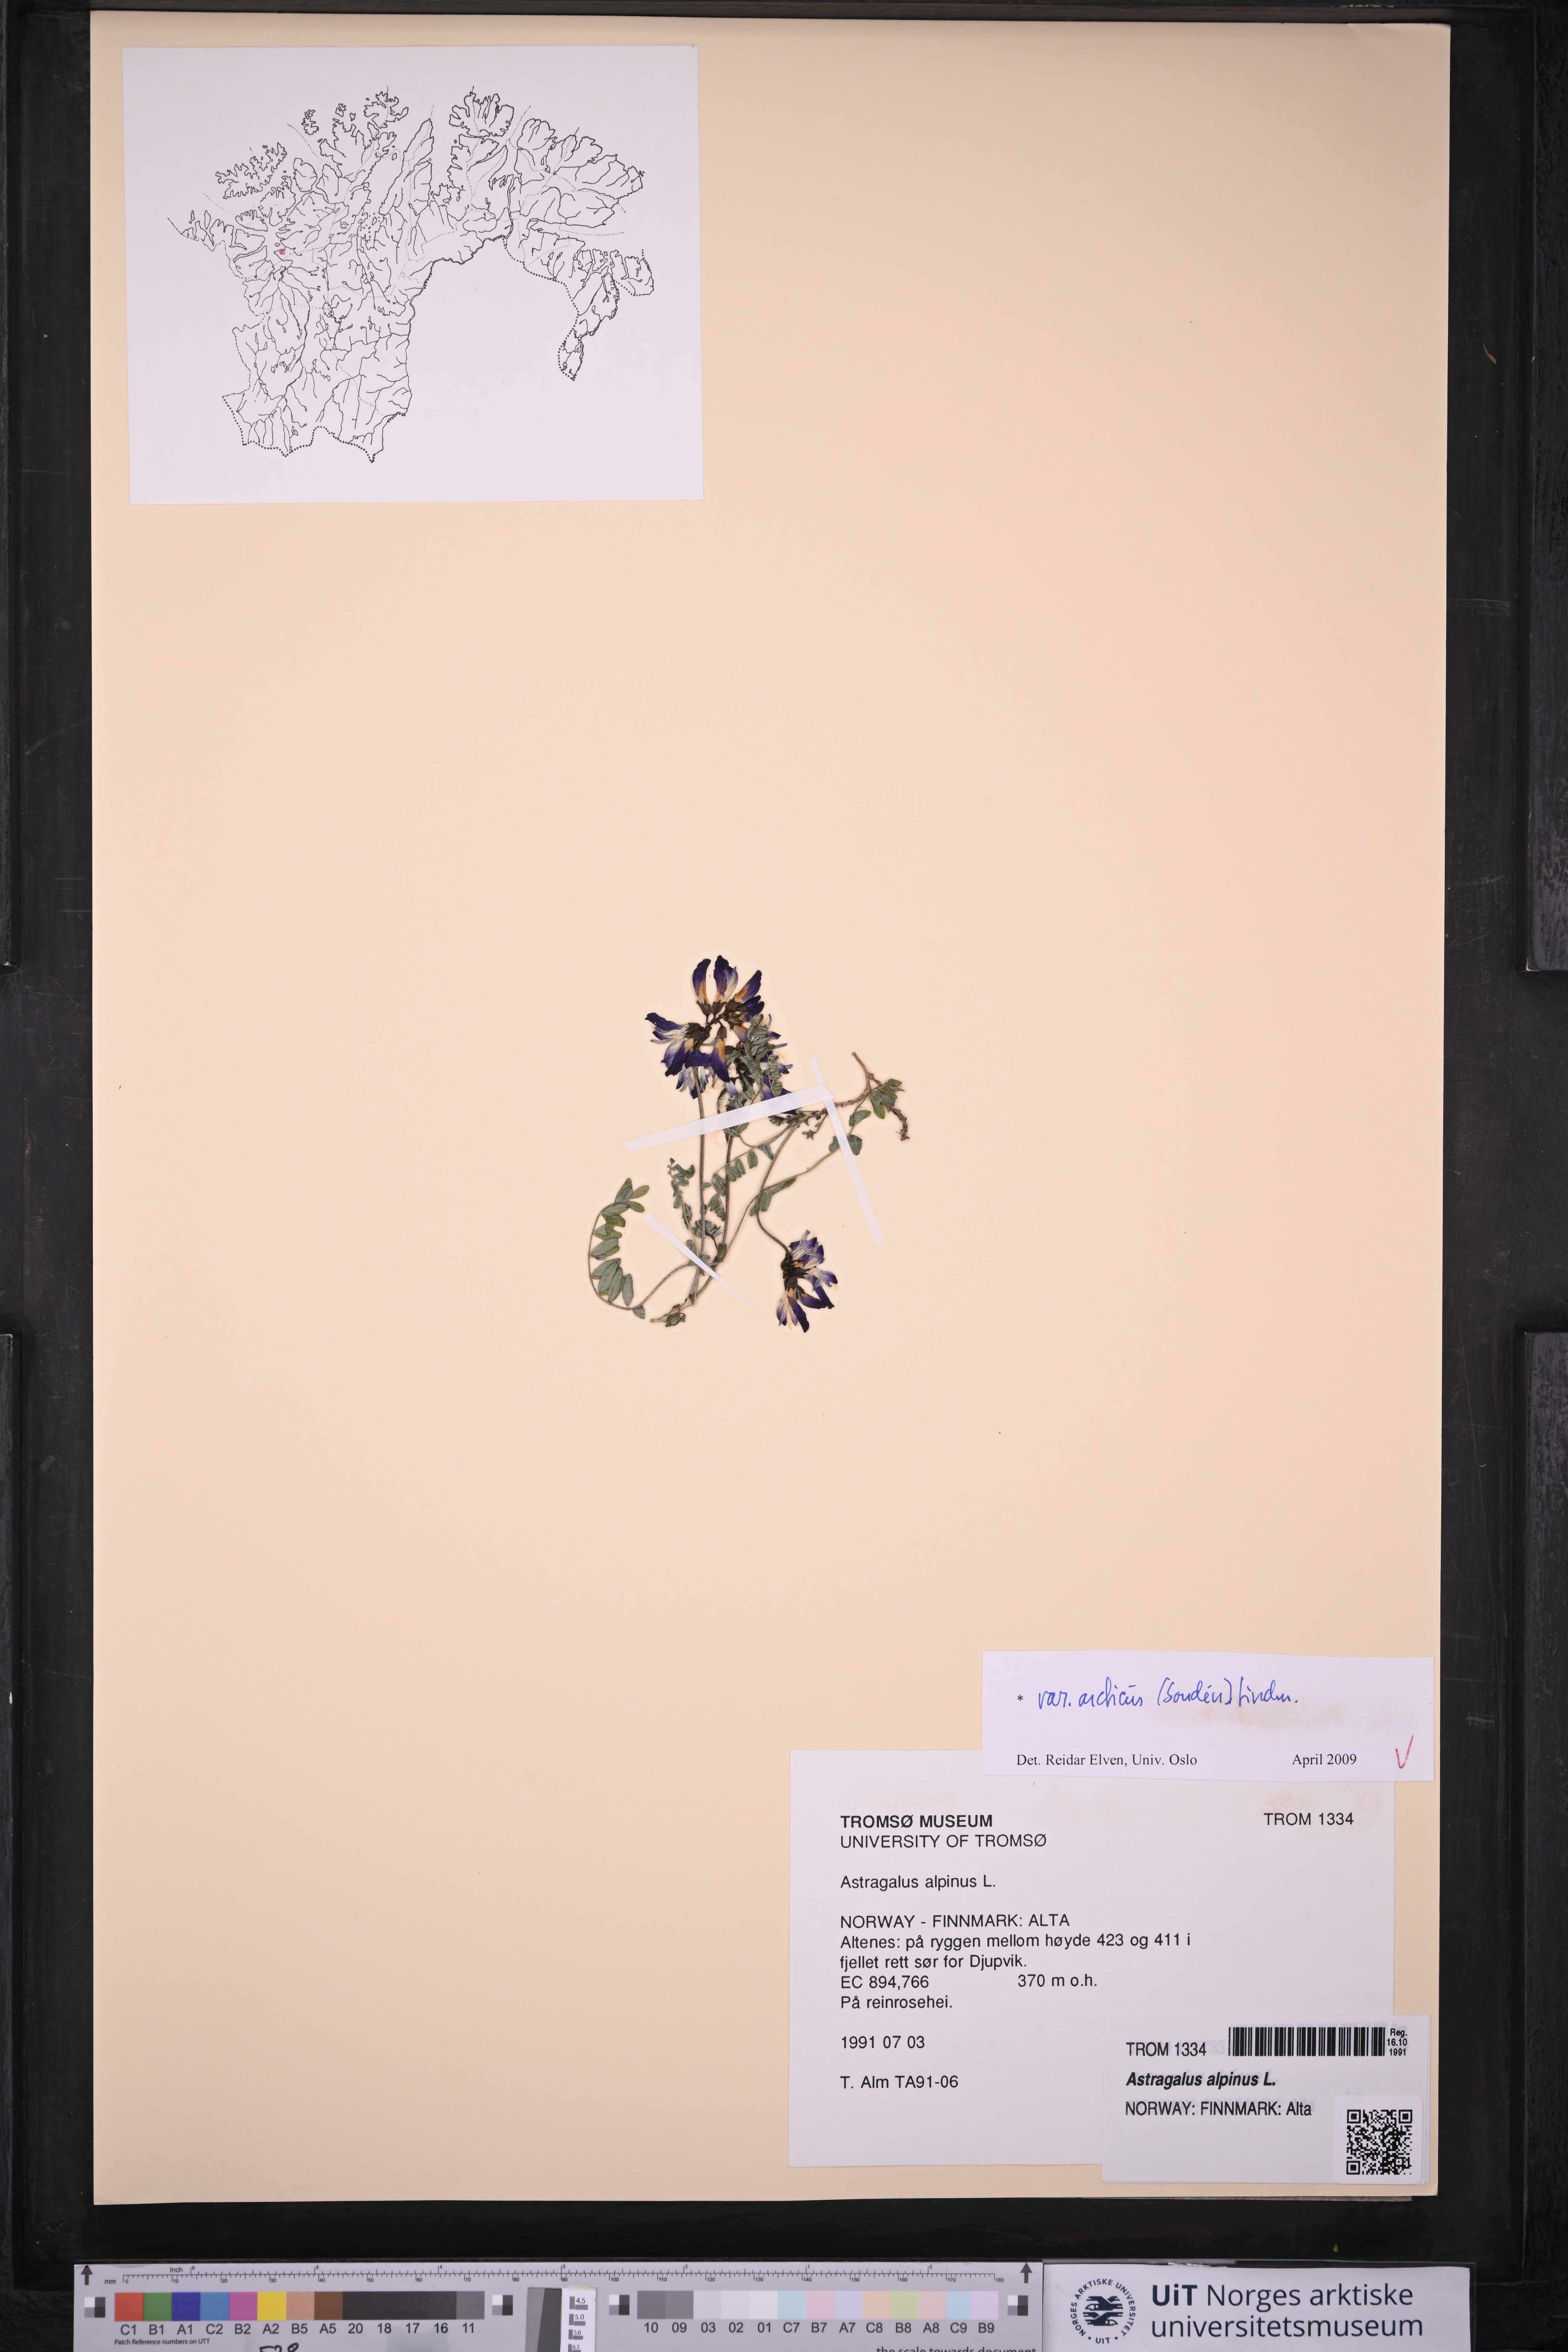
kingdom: Plantae
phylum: Tracheophyta
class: Magnoliopsida
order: Fabales
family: Fabaceae
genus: Astragalus
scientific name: Astragalus norvegicus
